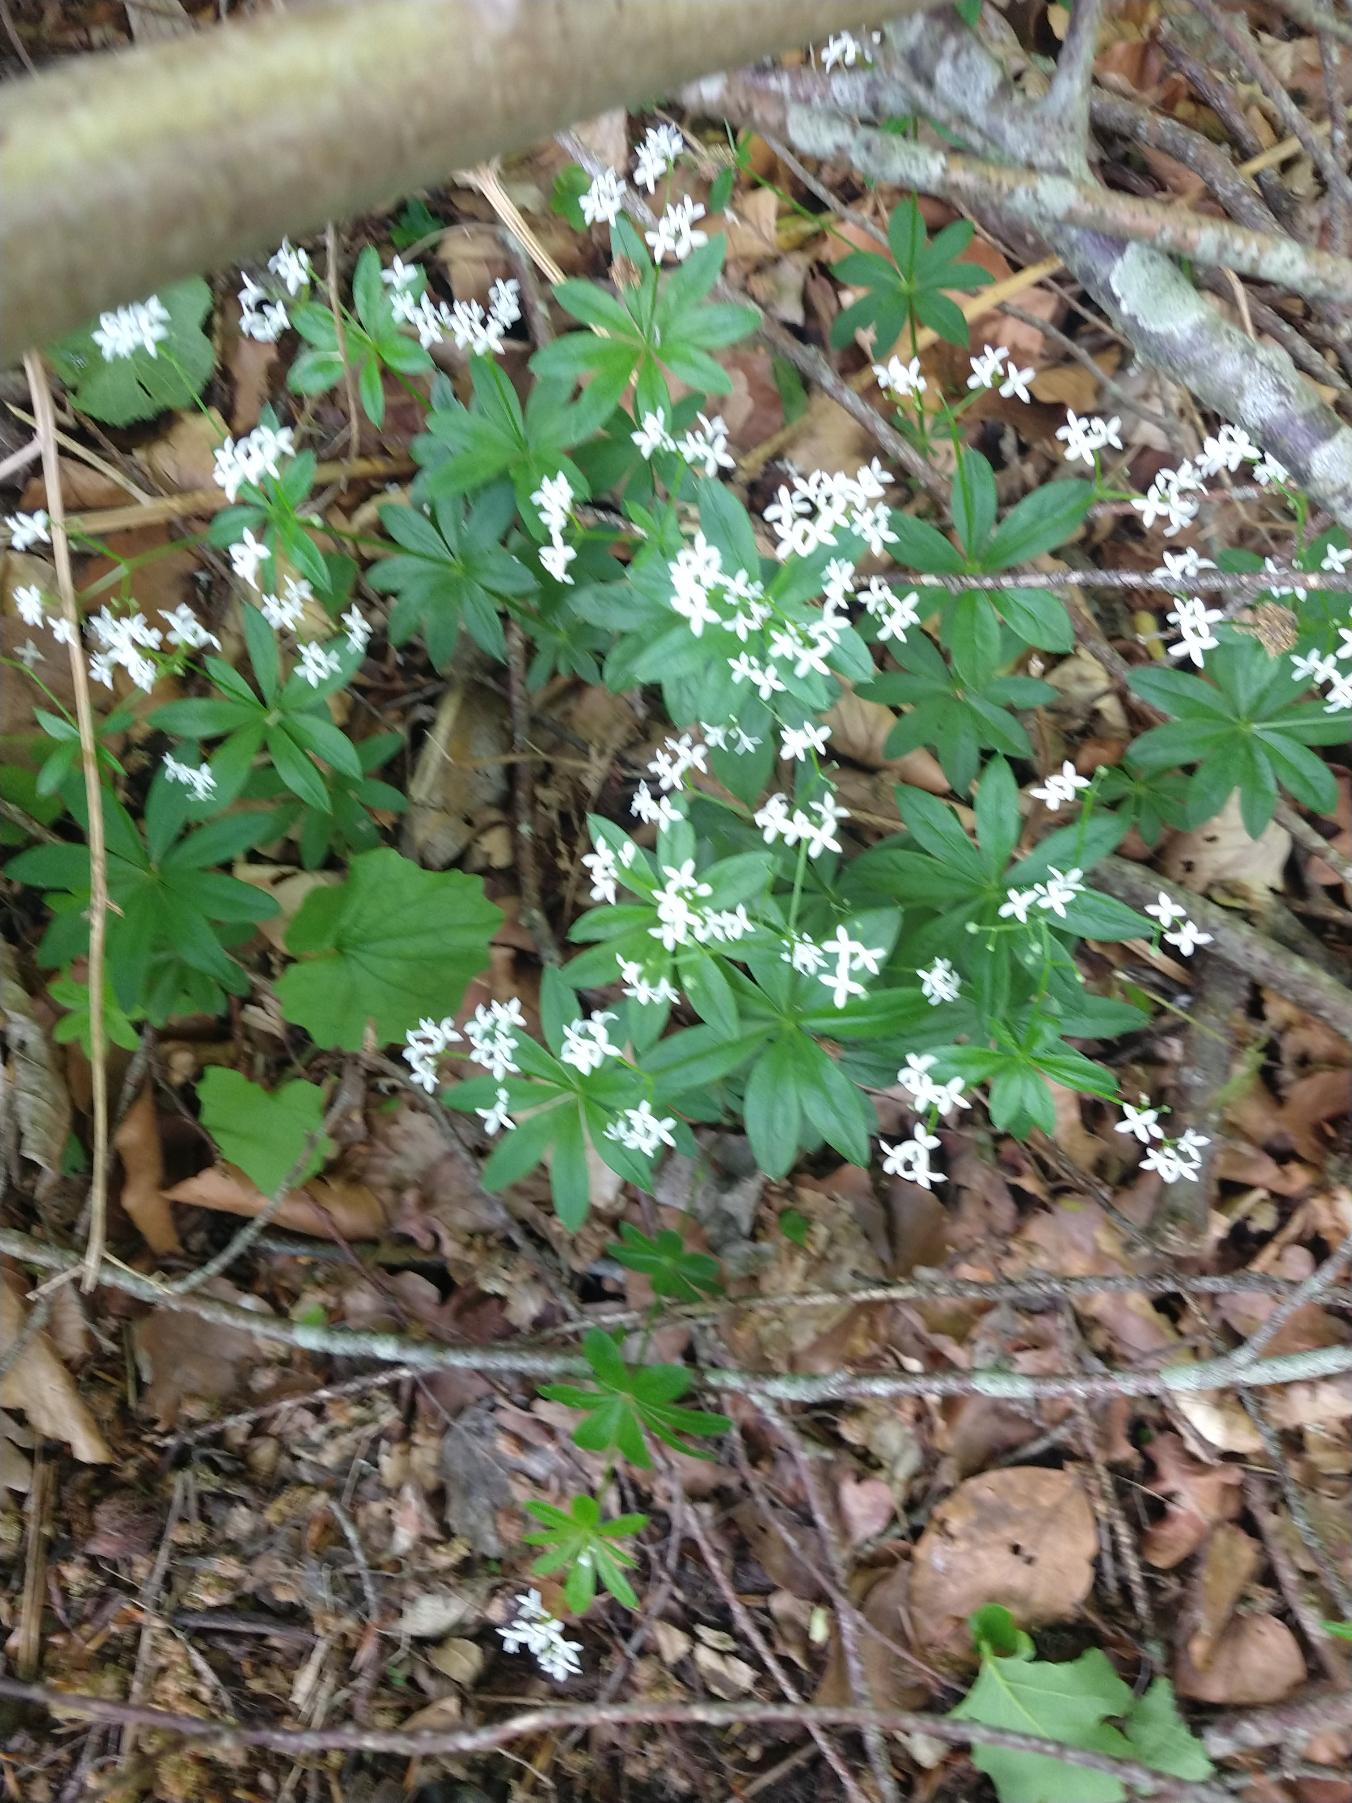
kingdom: Plantae
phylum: Tracheophyta
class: Magnoliopsida
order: Gentianales
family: Rubiaceae
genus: Galium
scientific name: Galium odoratum
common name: Skovmærke
